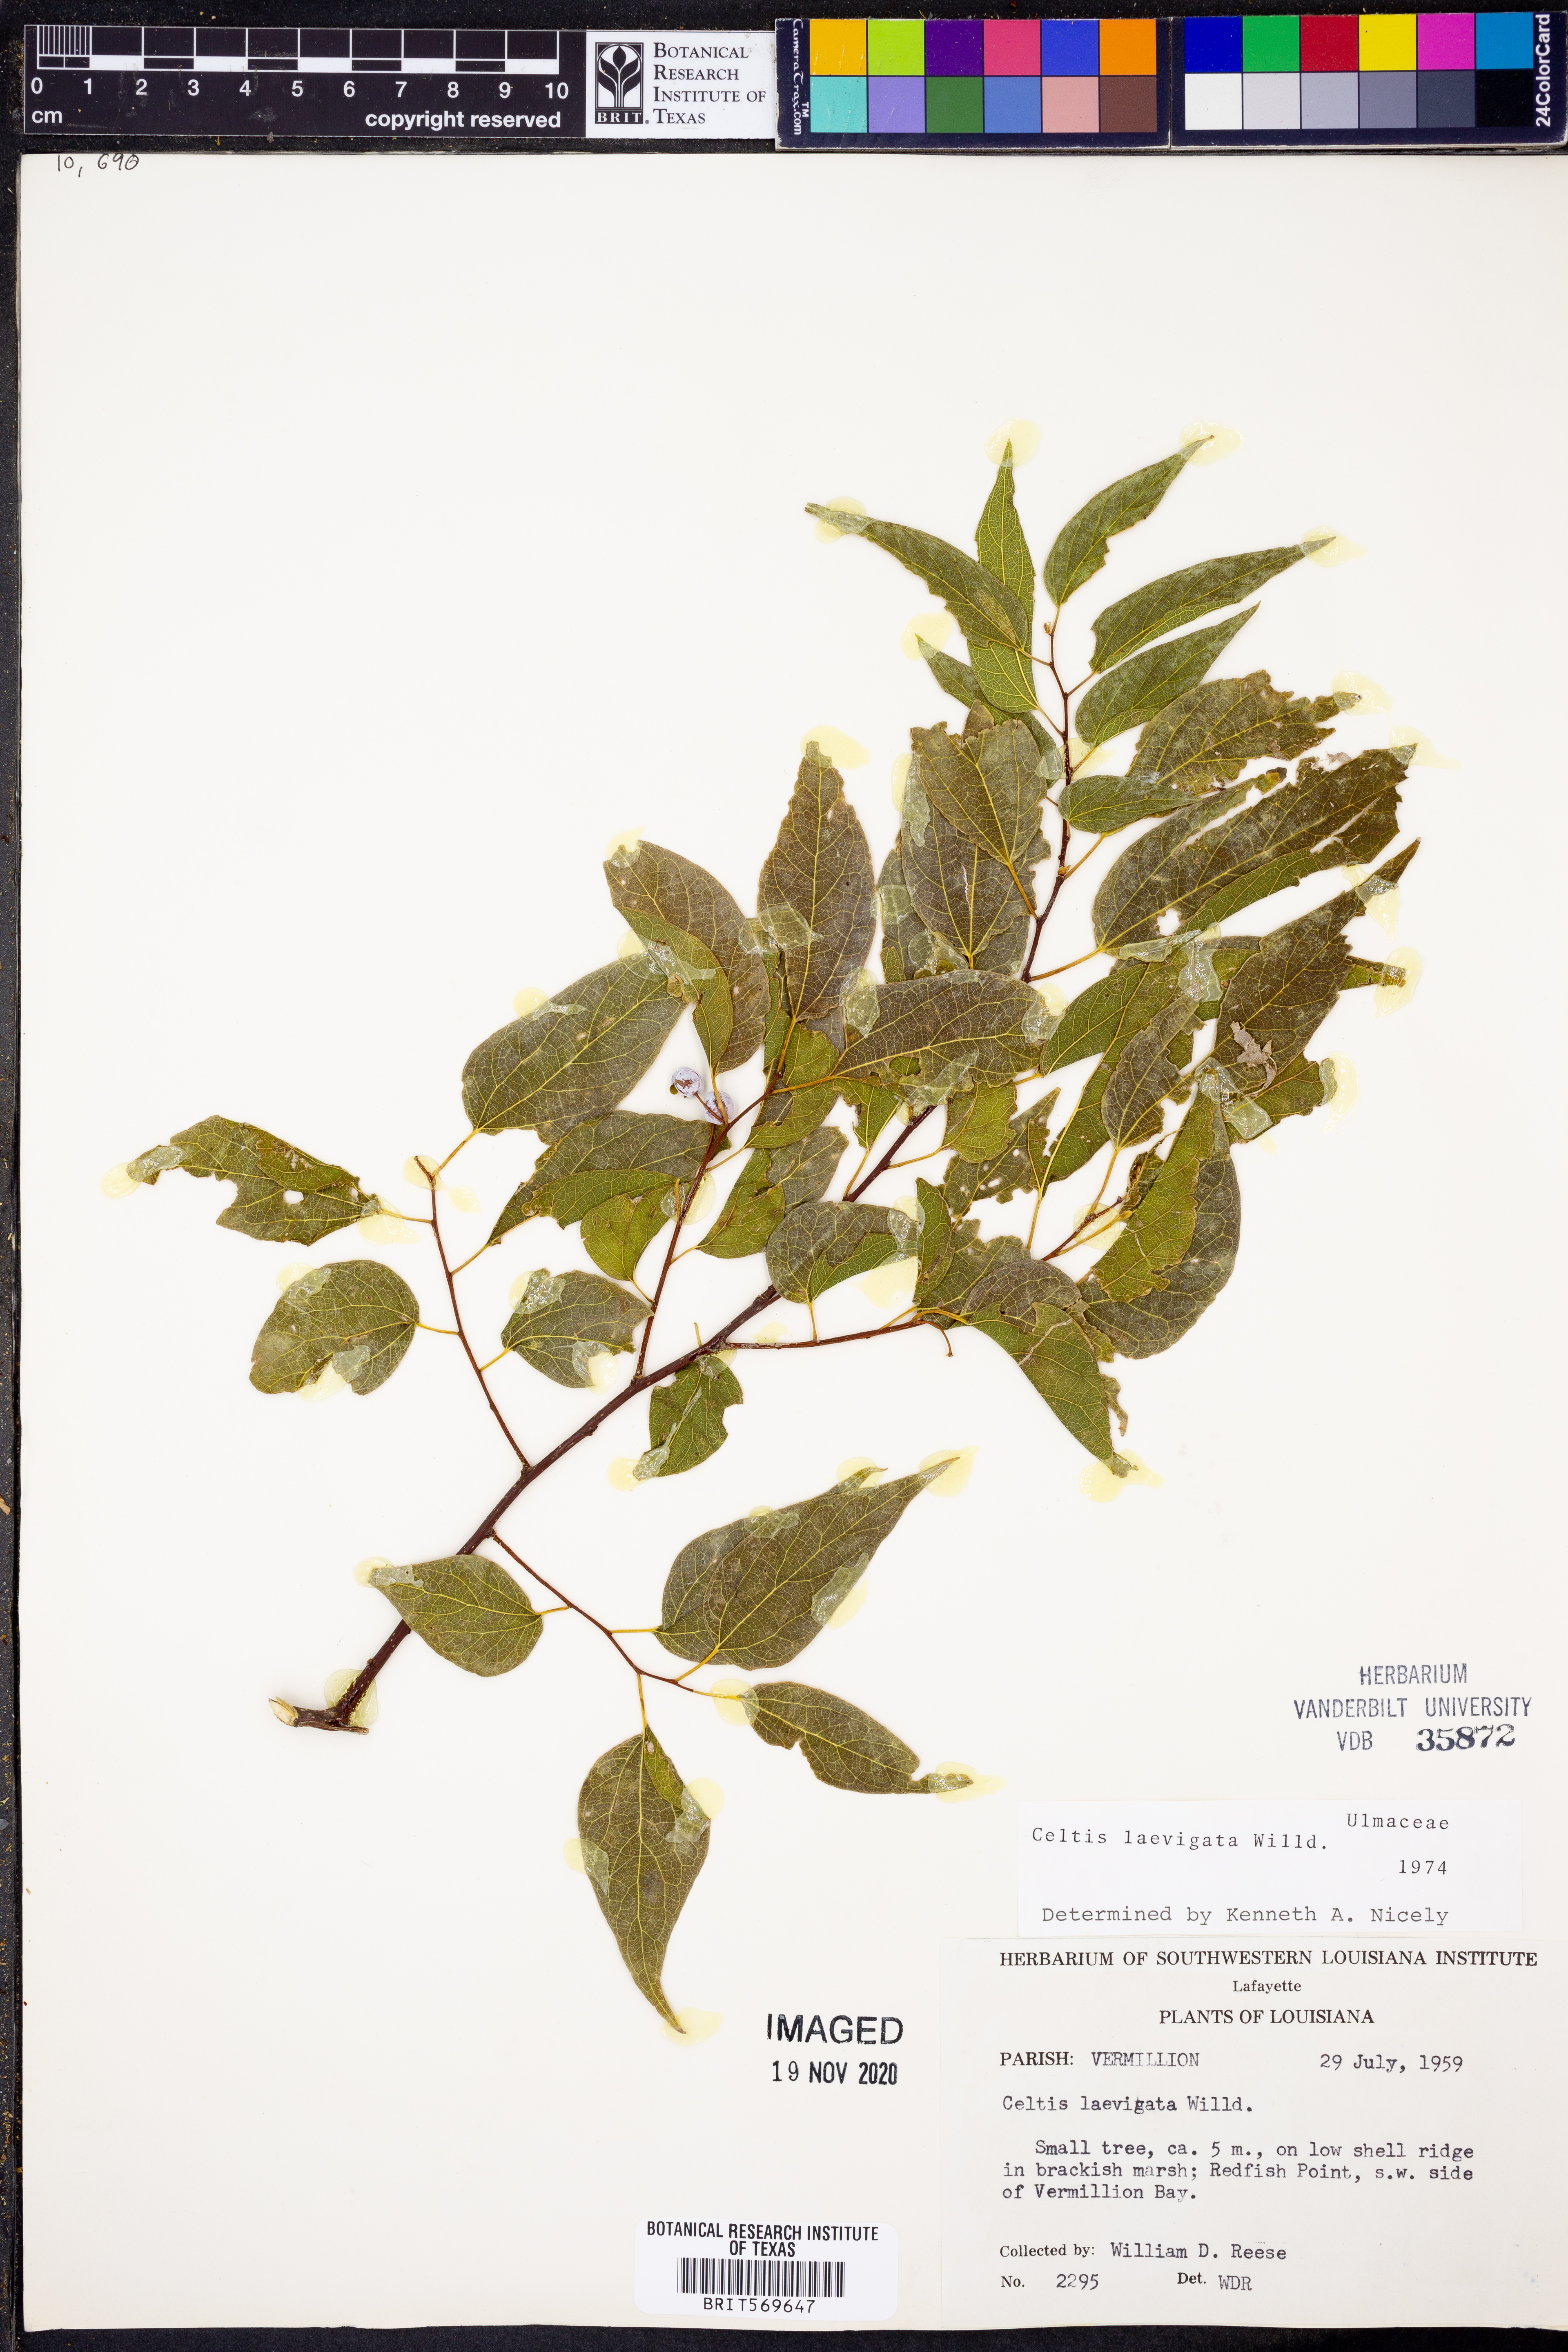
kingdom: Plantae
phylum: Tracheophyta
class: Magnoliopsida
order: Rosales
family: Cannabaceae
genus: Celtis
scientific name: Celtis laevigata
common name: Sugarberry
